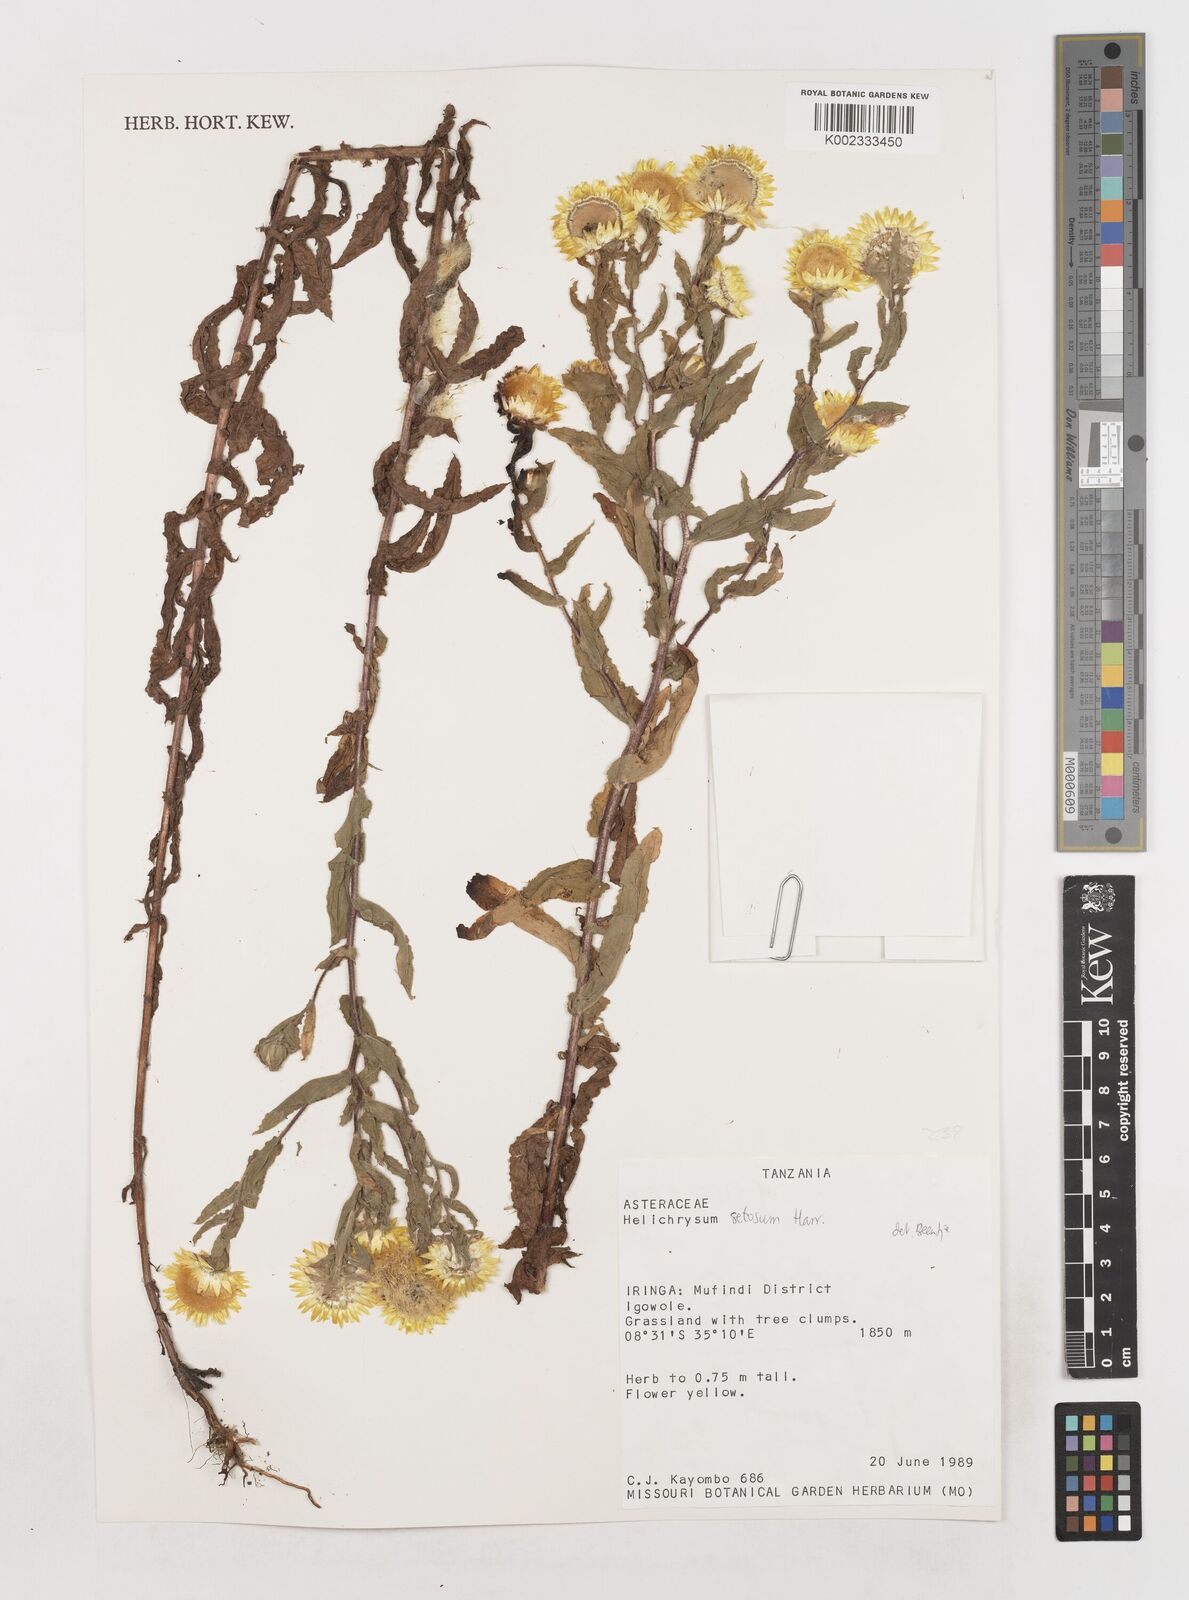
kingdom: Plantae
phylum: Tracheophyta
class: Magnoliopsida
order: Asterales
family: Asteraceae
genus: Helichrysum
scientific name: Helichrysum setosum
